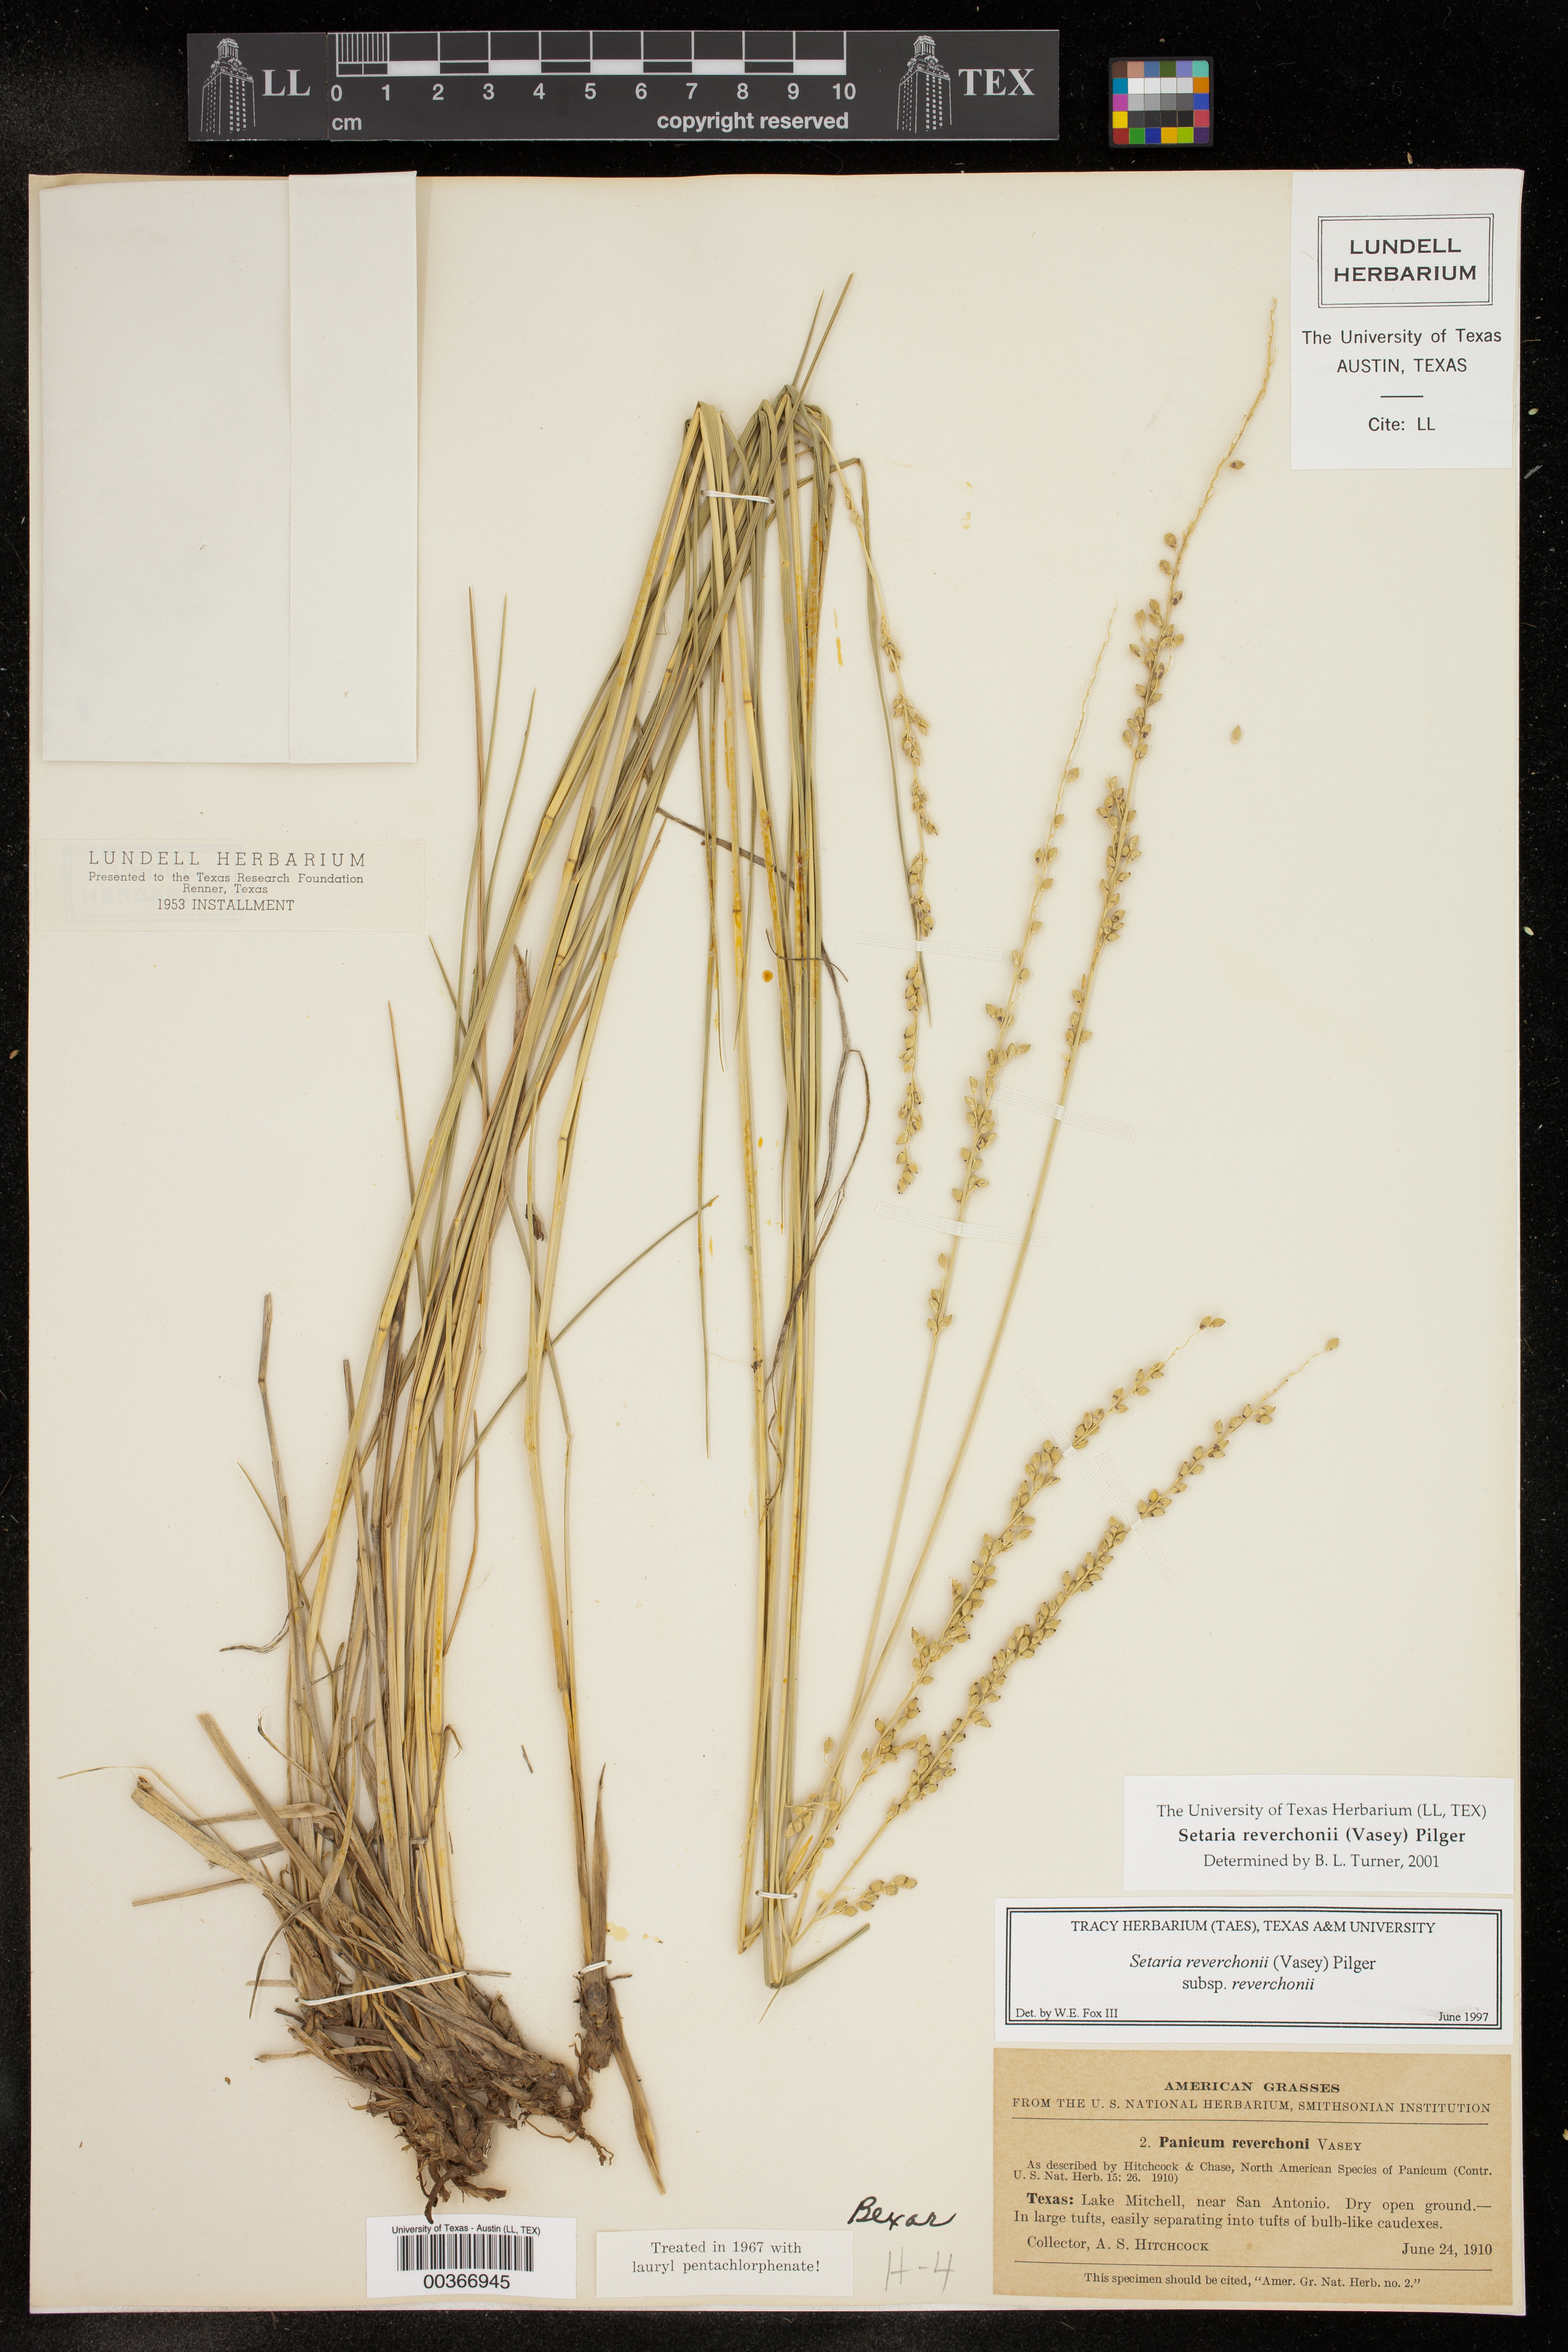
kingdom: Plantae
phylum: Tracheophyta
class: Liliopsida
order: Poales
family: Poaceae
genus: Setaria
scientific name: Setaria reverchonii
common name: Reverchon's bristle grass
